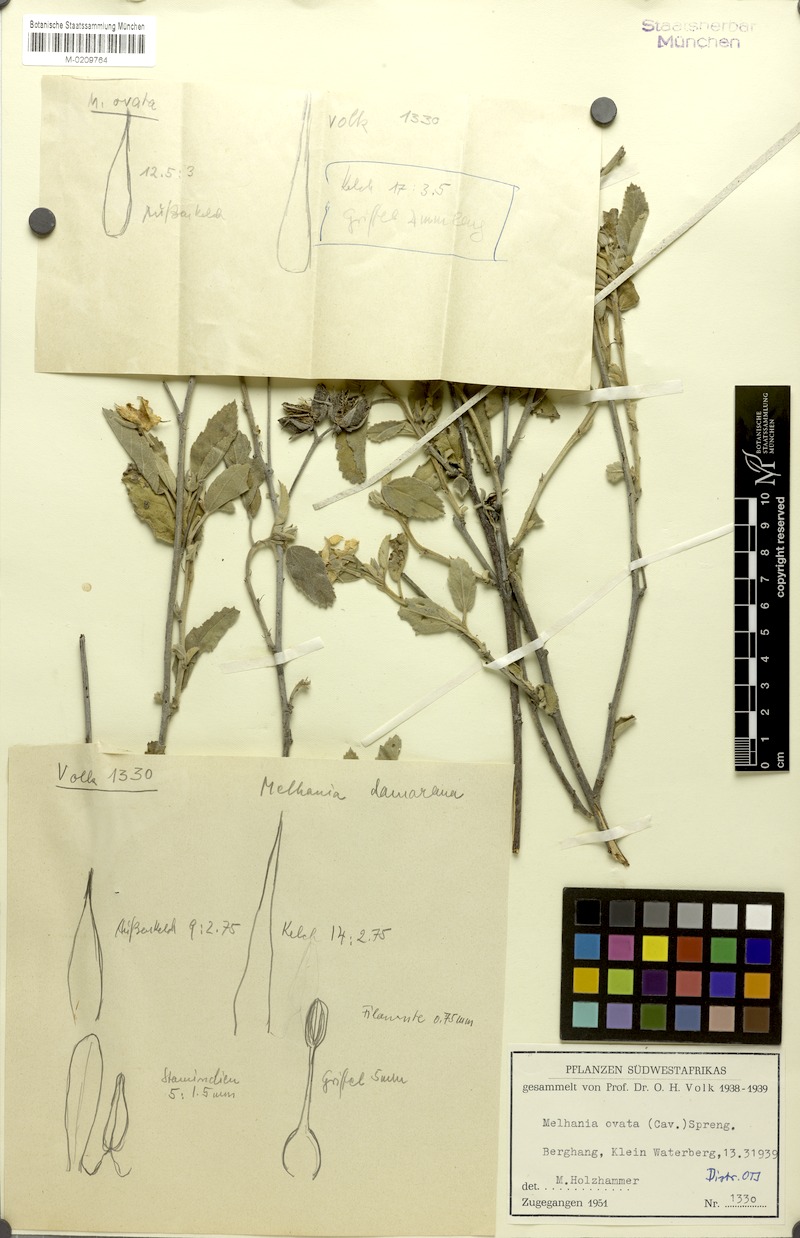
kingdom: Plantae
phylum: Tracheophyta
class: Magnoliopsida
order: Malvales
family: Malvaceae
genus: Melhania
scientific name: Melhania ovata
